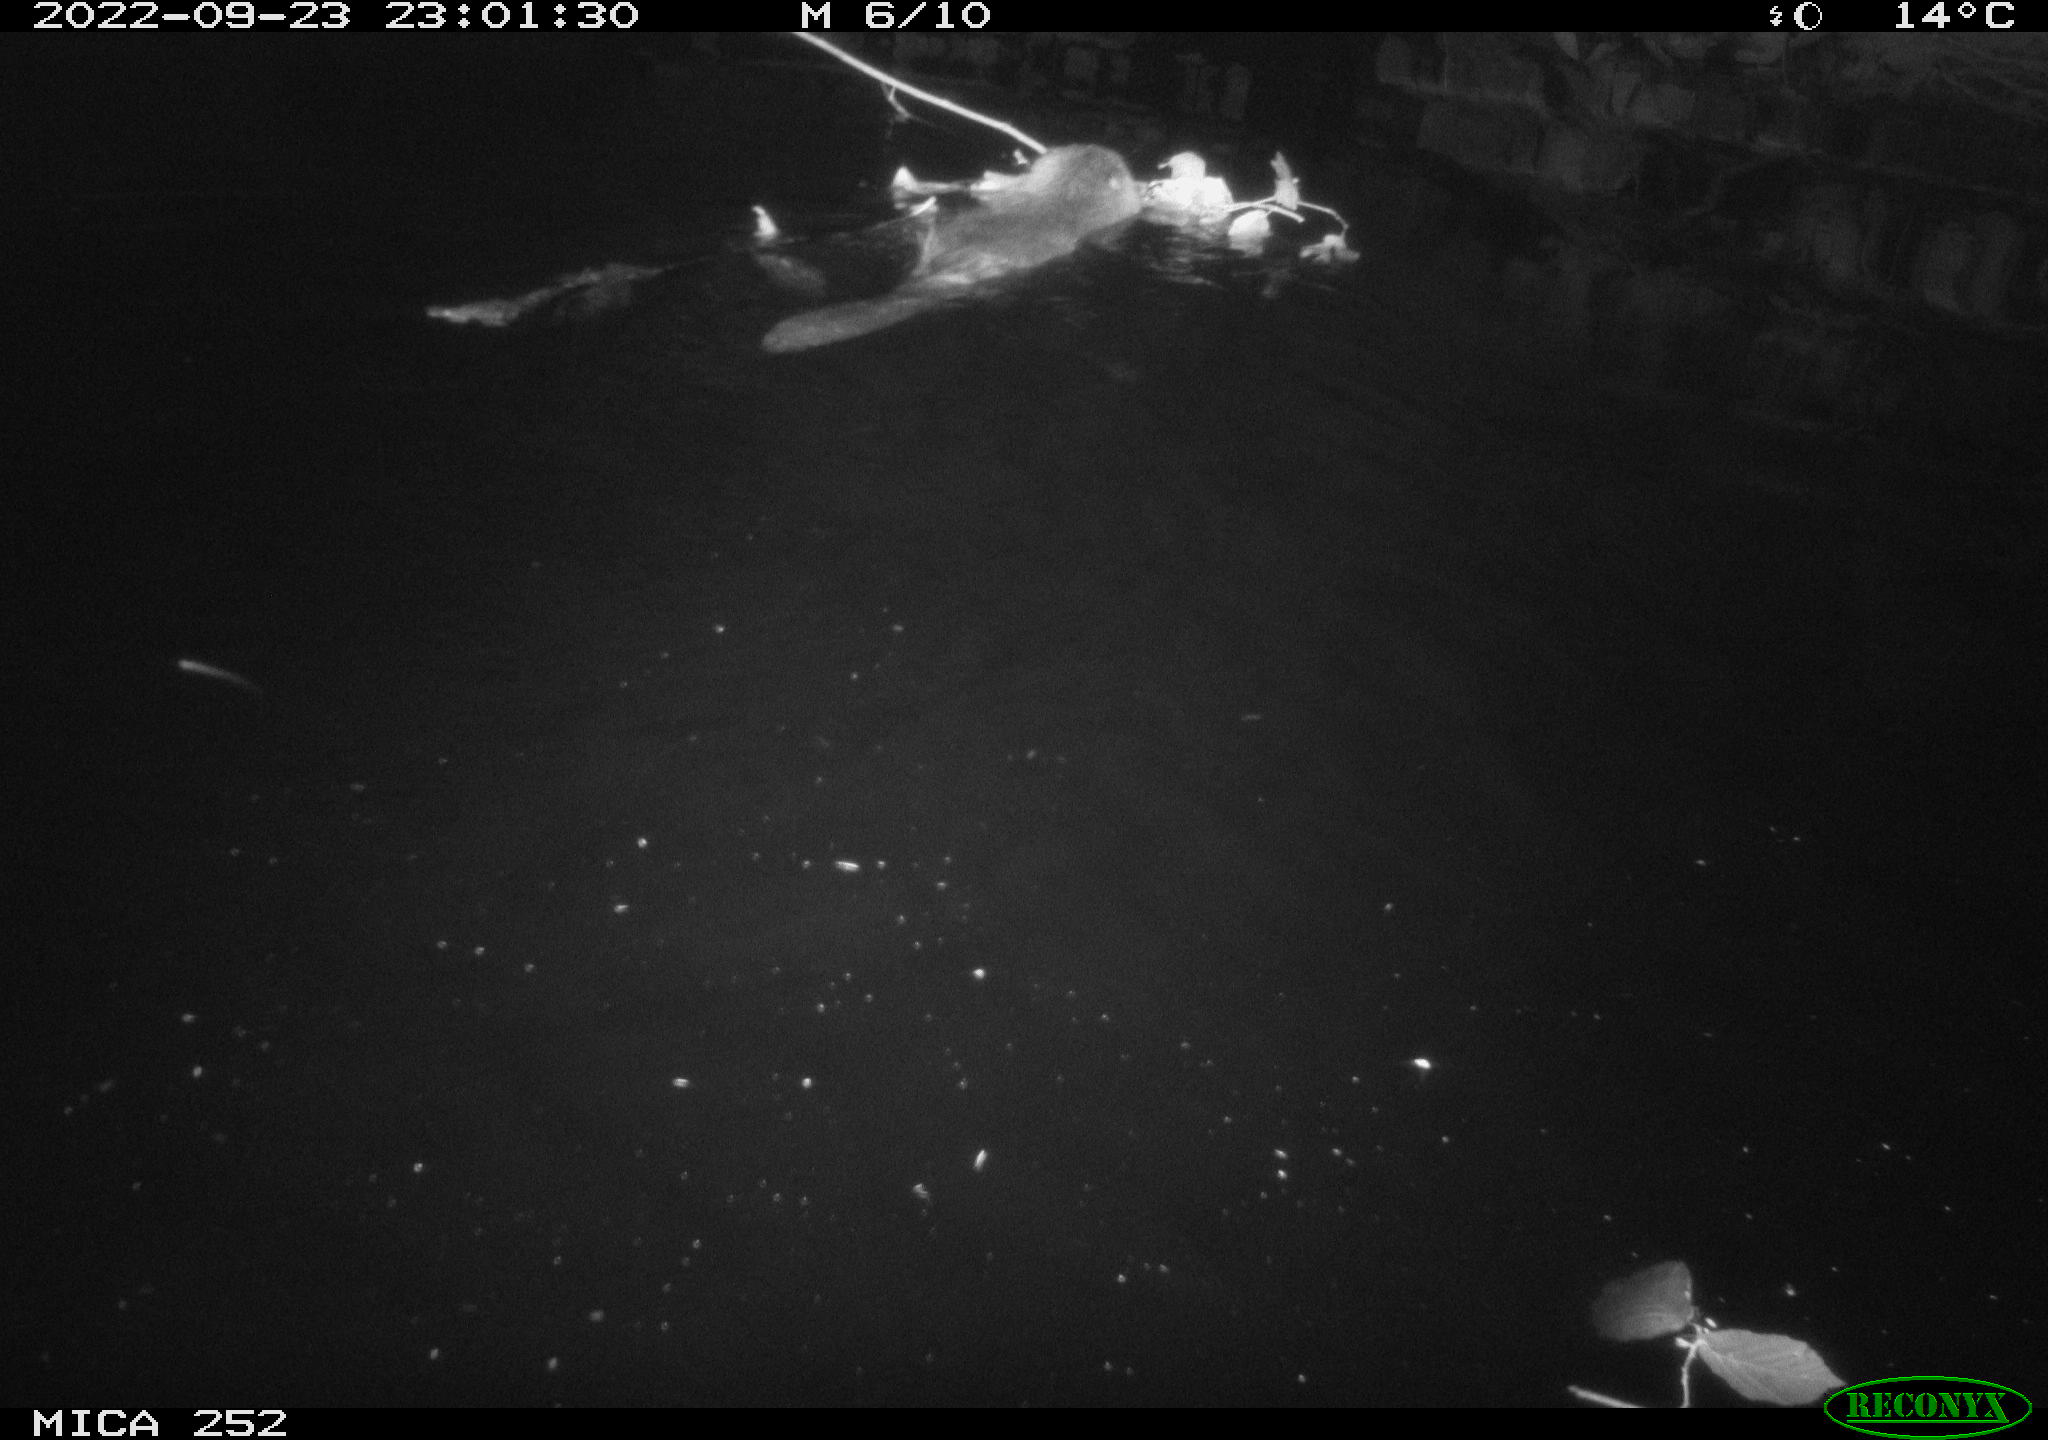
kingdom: Animalia
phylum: Chordata
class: Mammalia
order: Rodentia
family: Castoridae
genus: Castor
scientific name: Castor fiber
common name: Eurasian beaver
